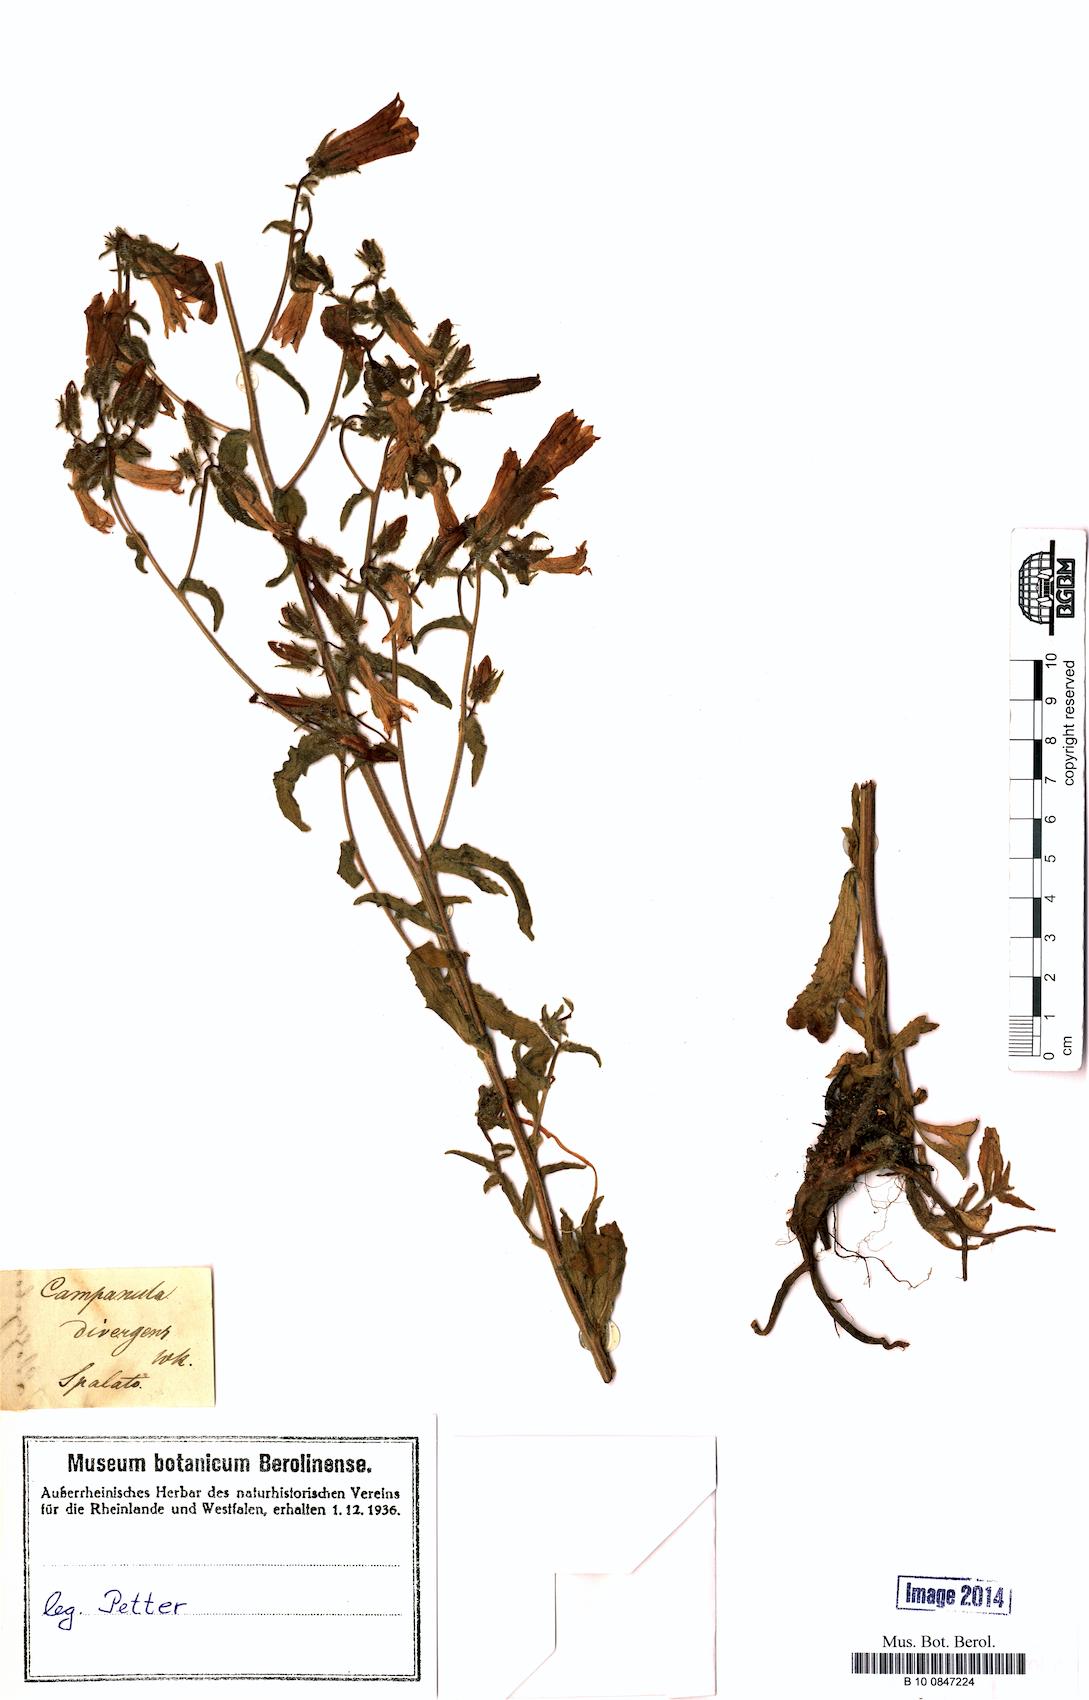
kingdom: Plantae
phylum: Tracheophyta
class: Magnoliopsida
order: Asterales
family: Campanulaceae
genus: Campanula
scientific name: Campanula sibirica
